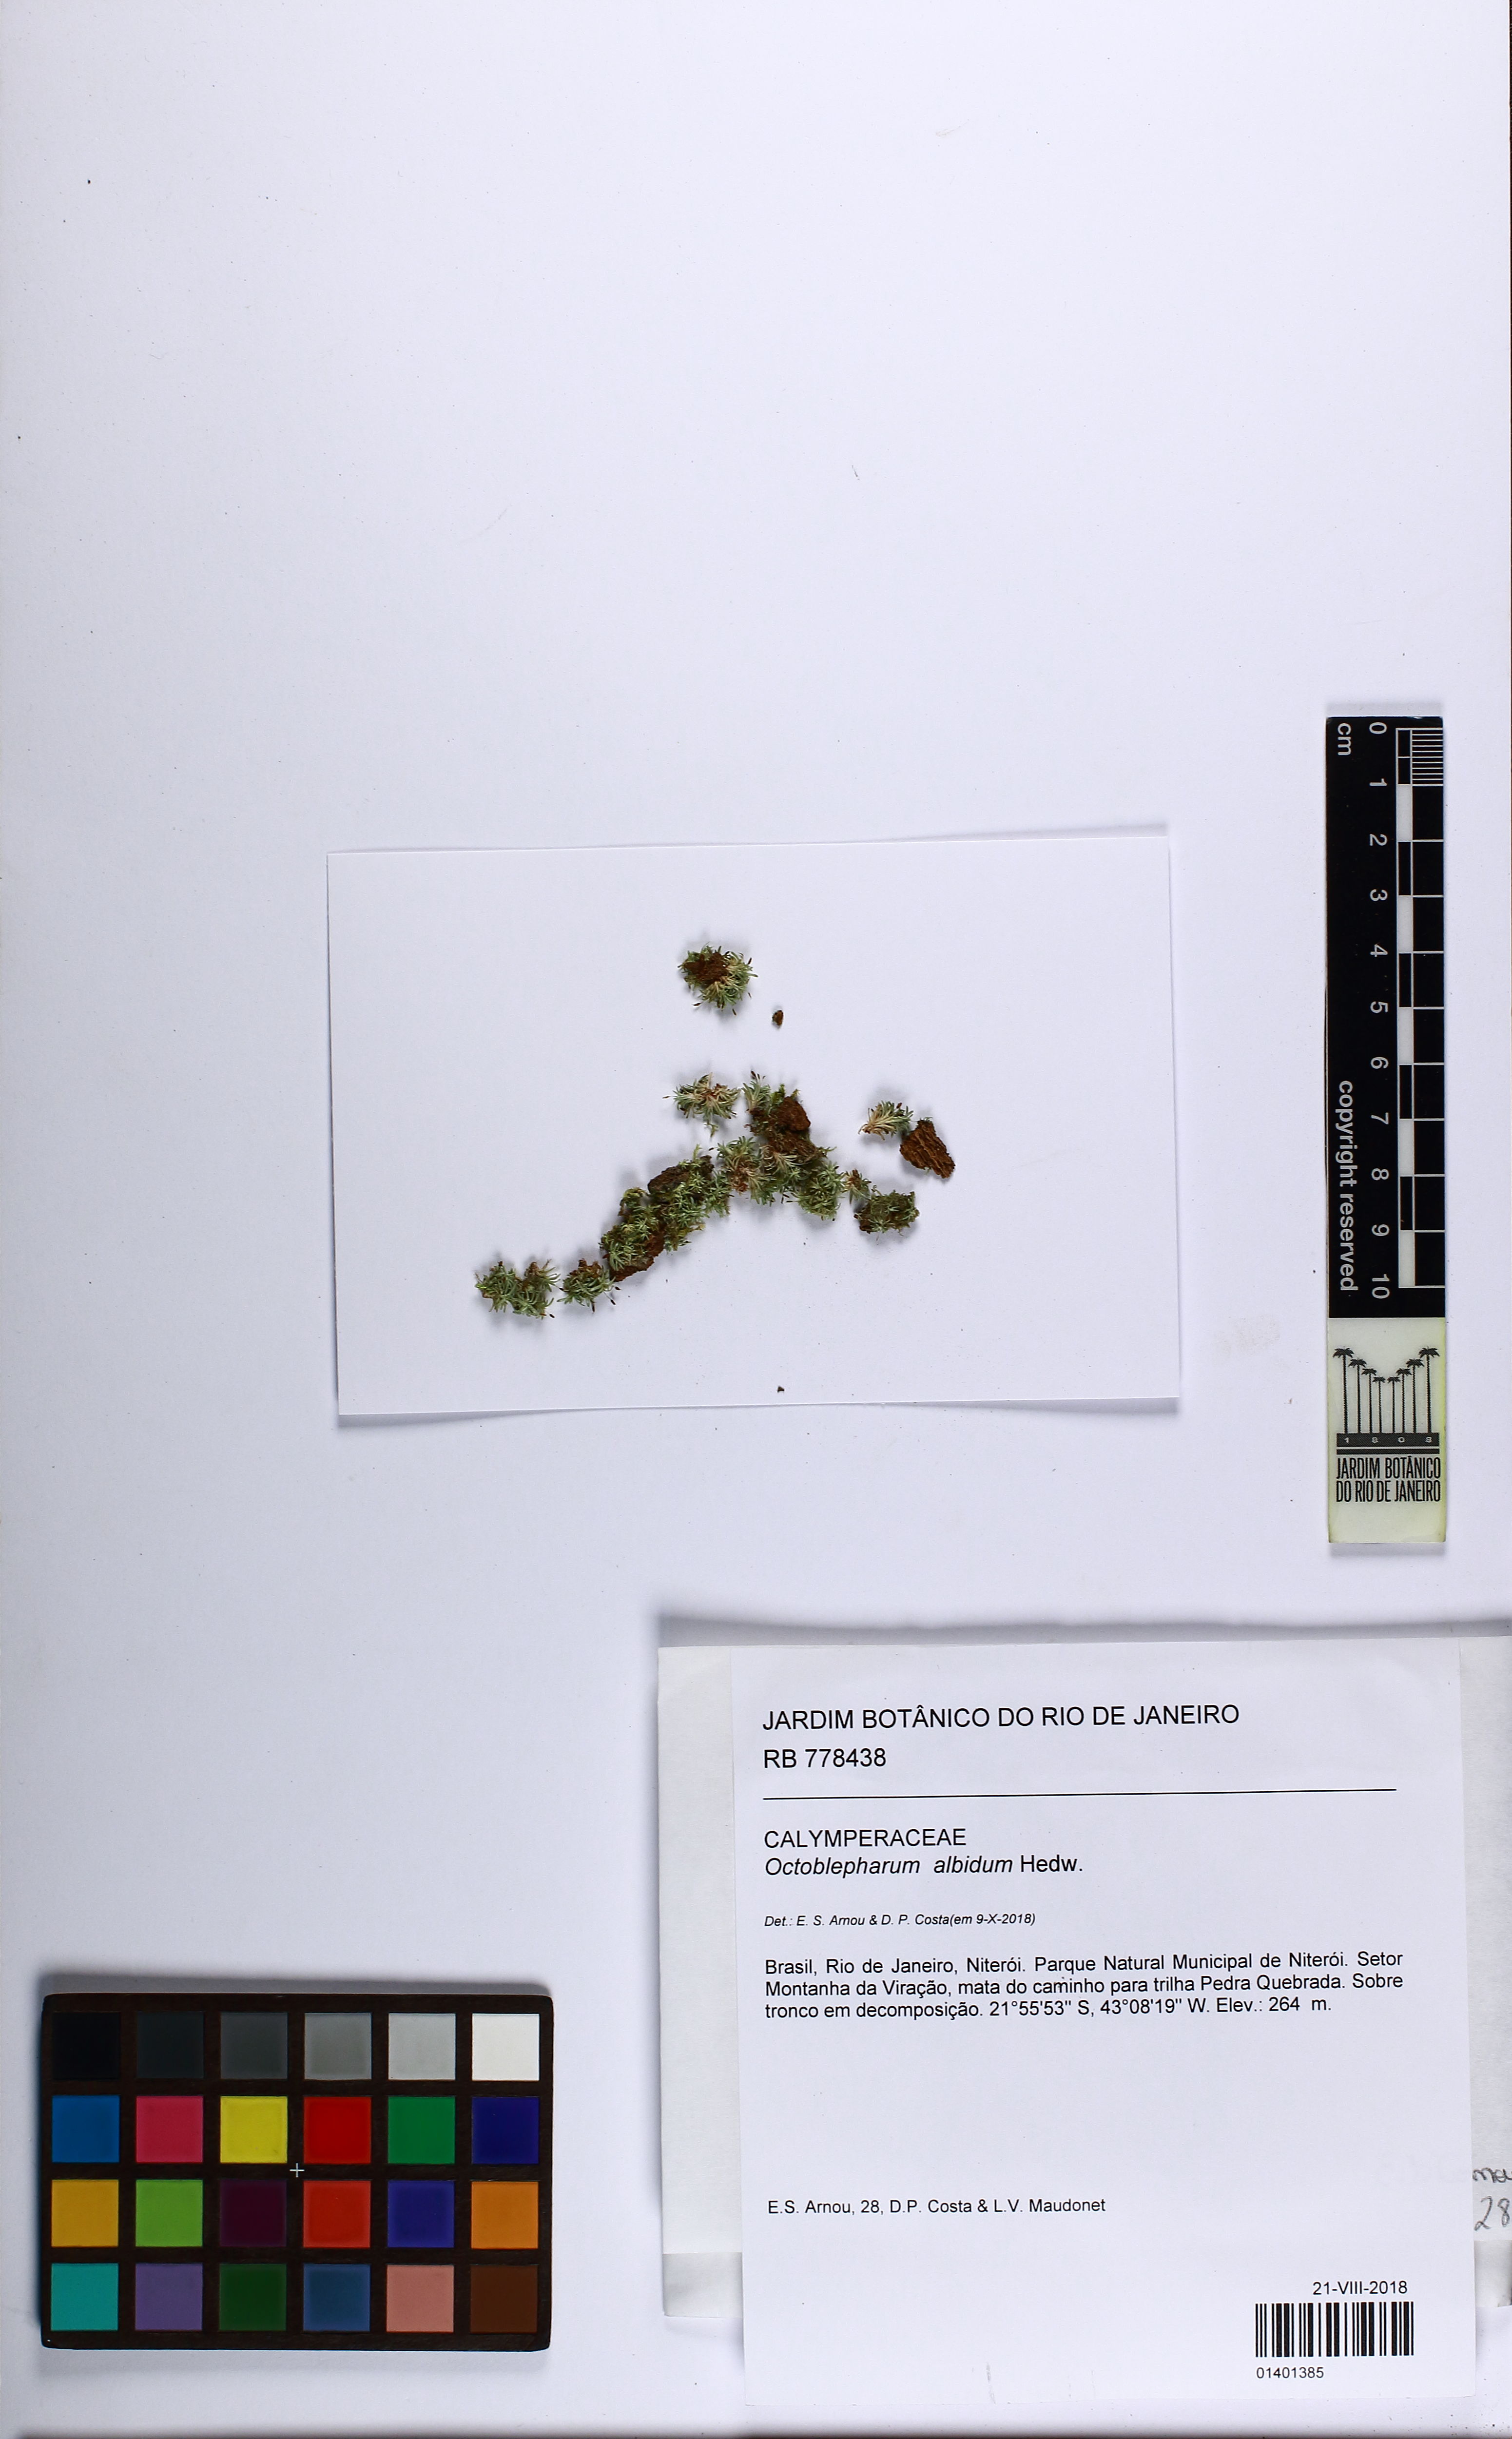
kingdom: Plantae
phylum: Bryophyta
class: Bryopsida
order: Dicranales
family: Octoblepharaceae
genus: Octoblepharum
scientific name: Octoblepharum albidum
